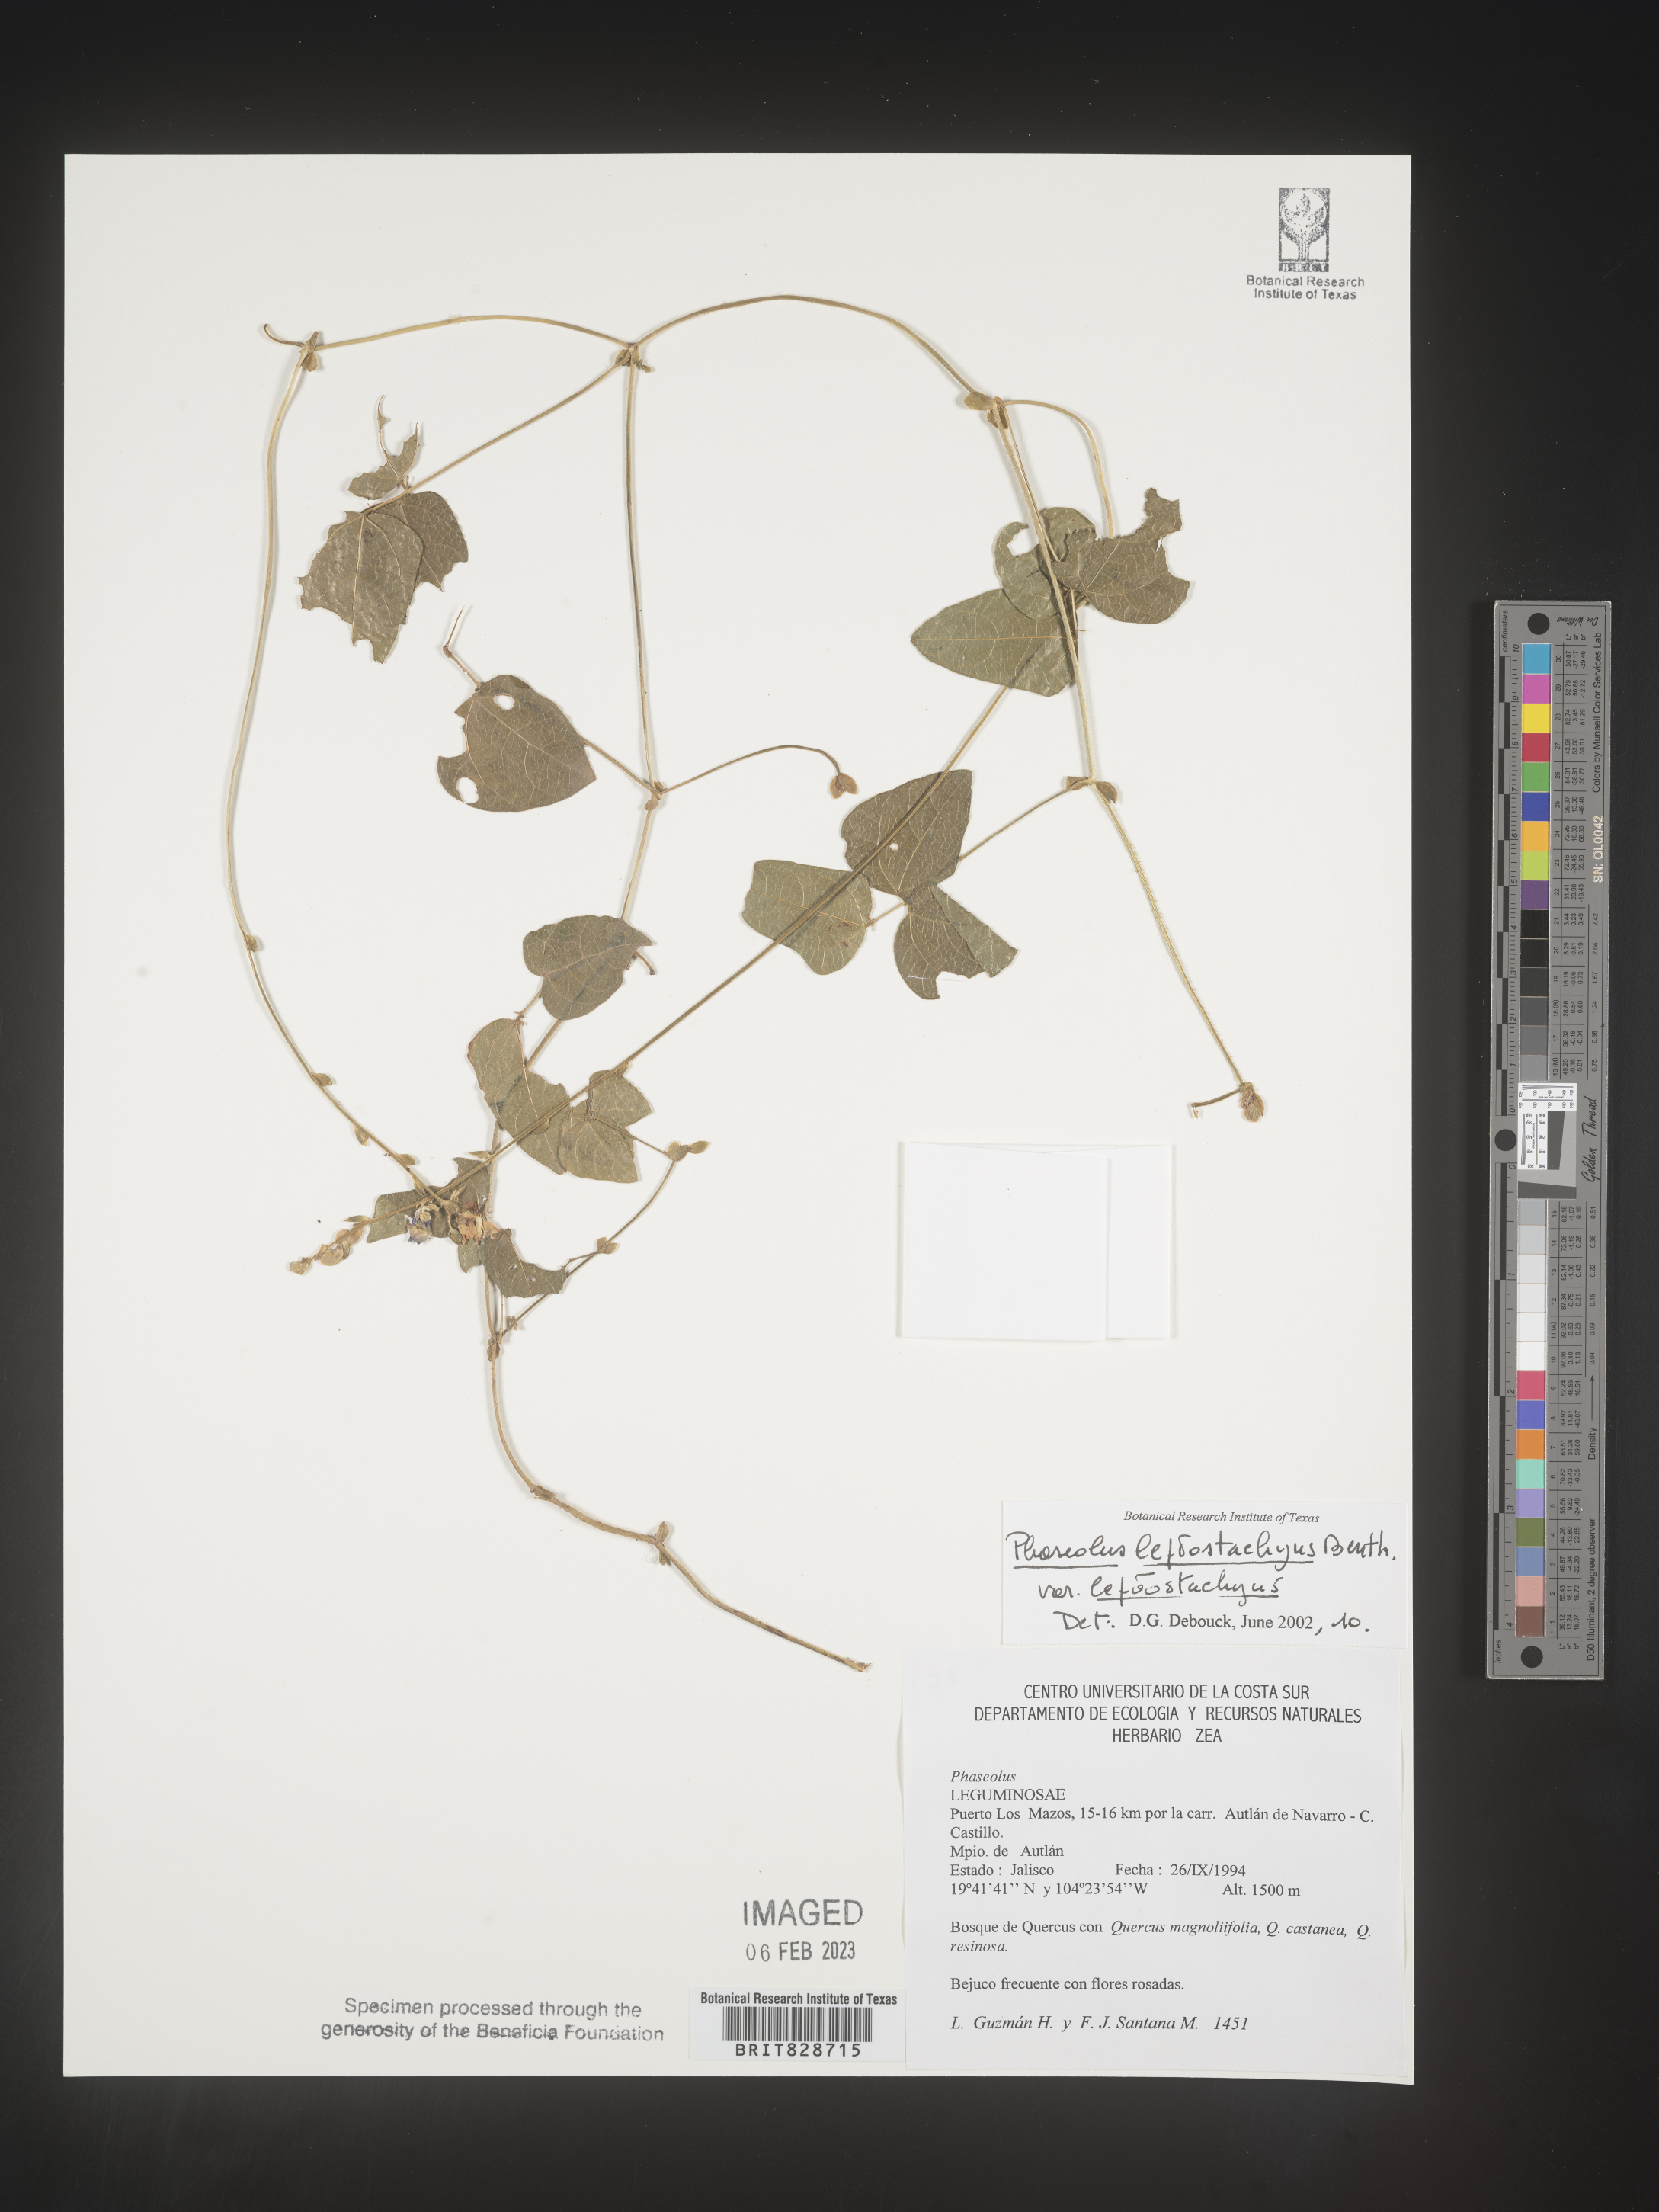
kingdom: Plantae
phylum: Tracheophyta
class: Magnoliopsida
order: Fabales
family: Fabaceae
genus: Phaseolus
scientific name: Phaseolus
